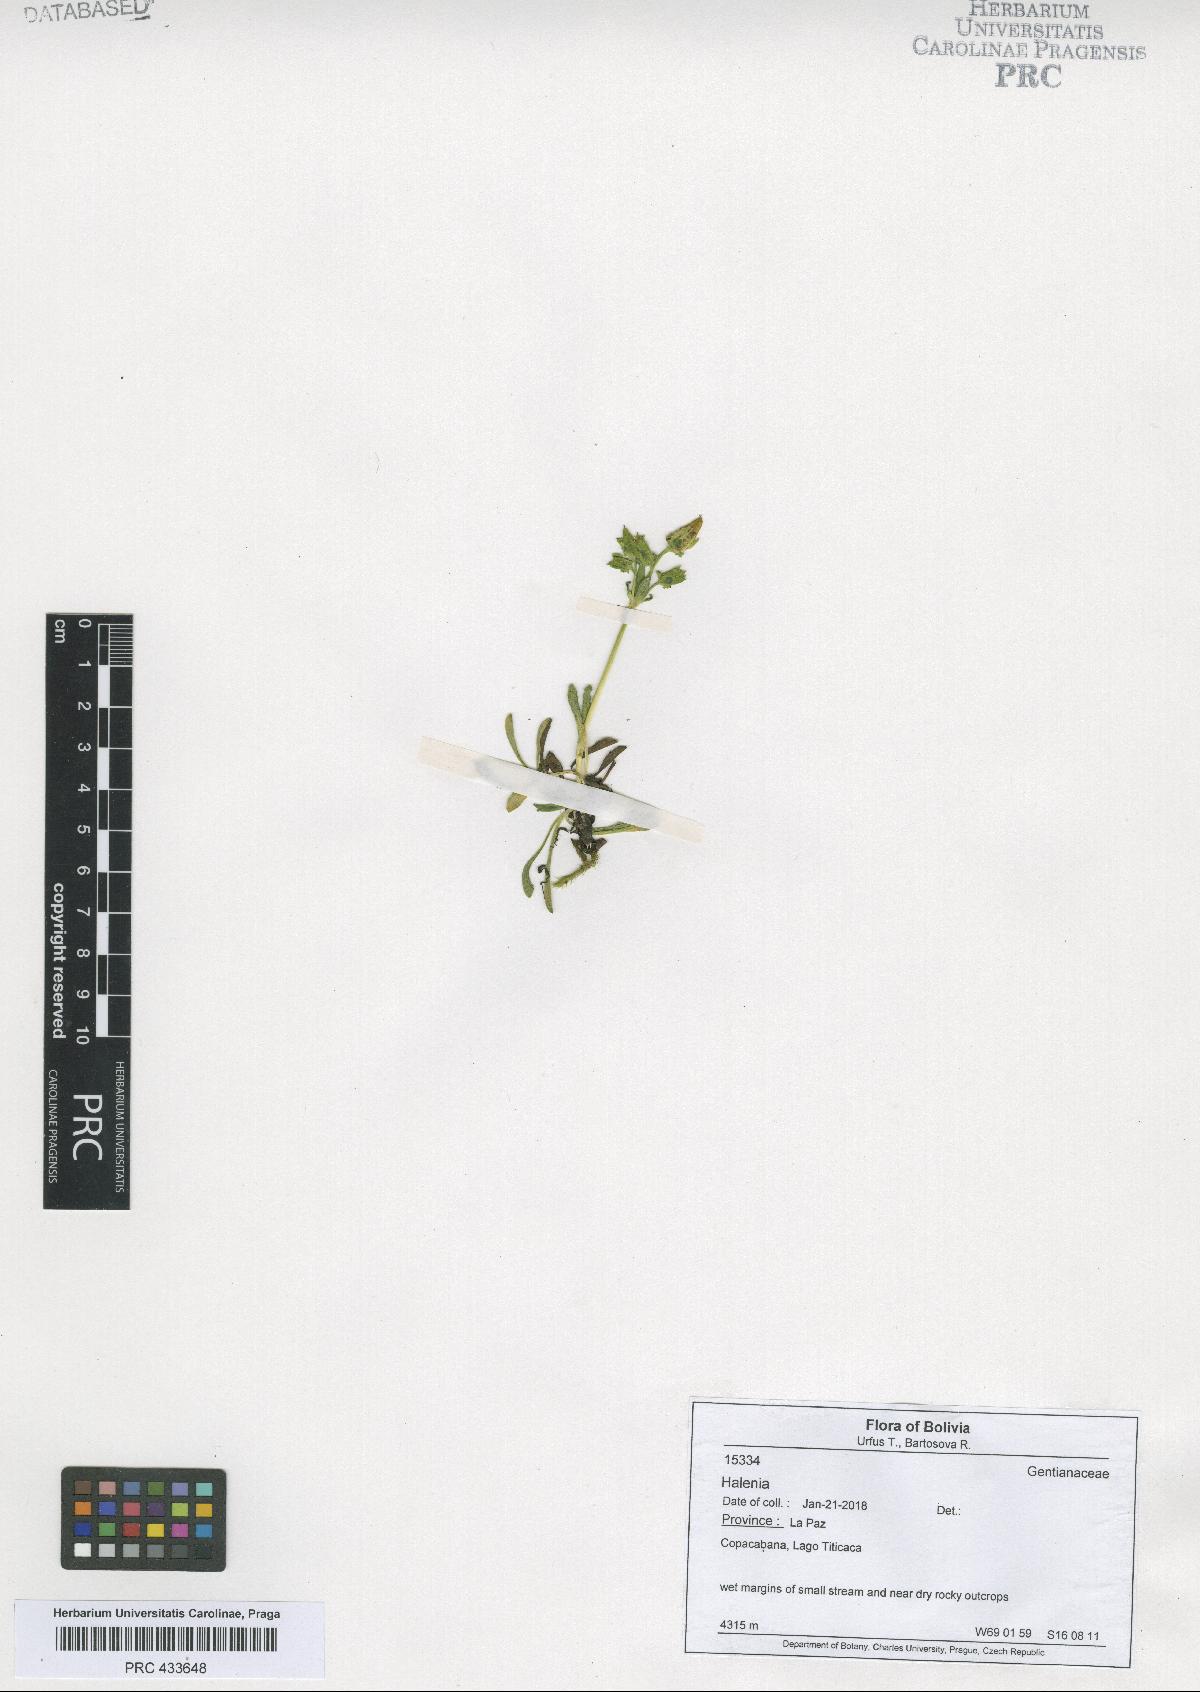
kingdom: Plantae
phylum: Tracheophyta
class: Magnoliopsida
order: Gentianales
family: Gentianaceae
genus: Halenia
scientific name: Halenia
